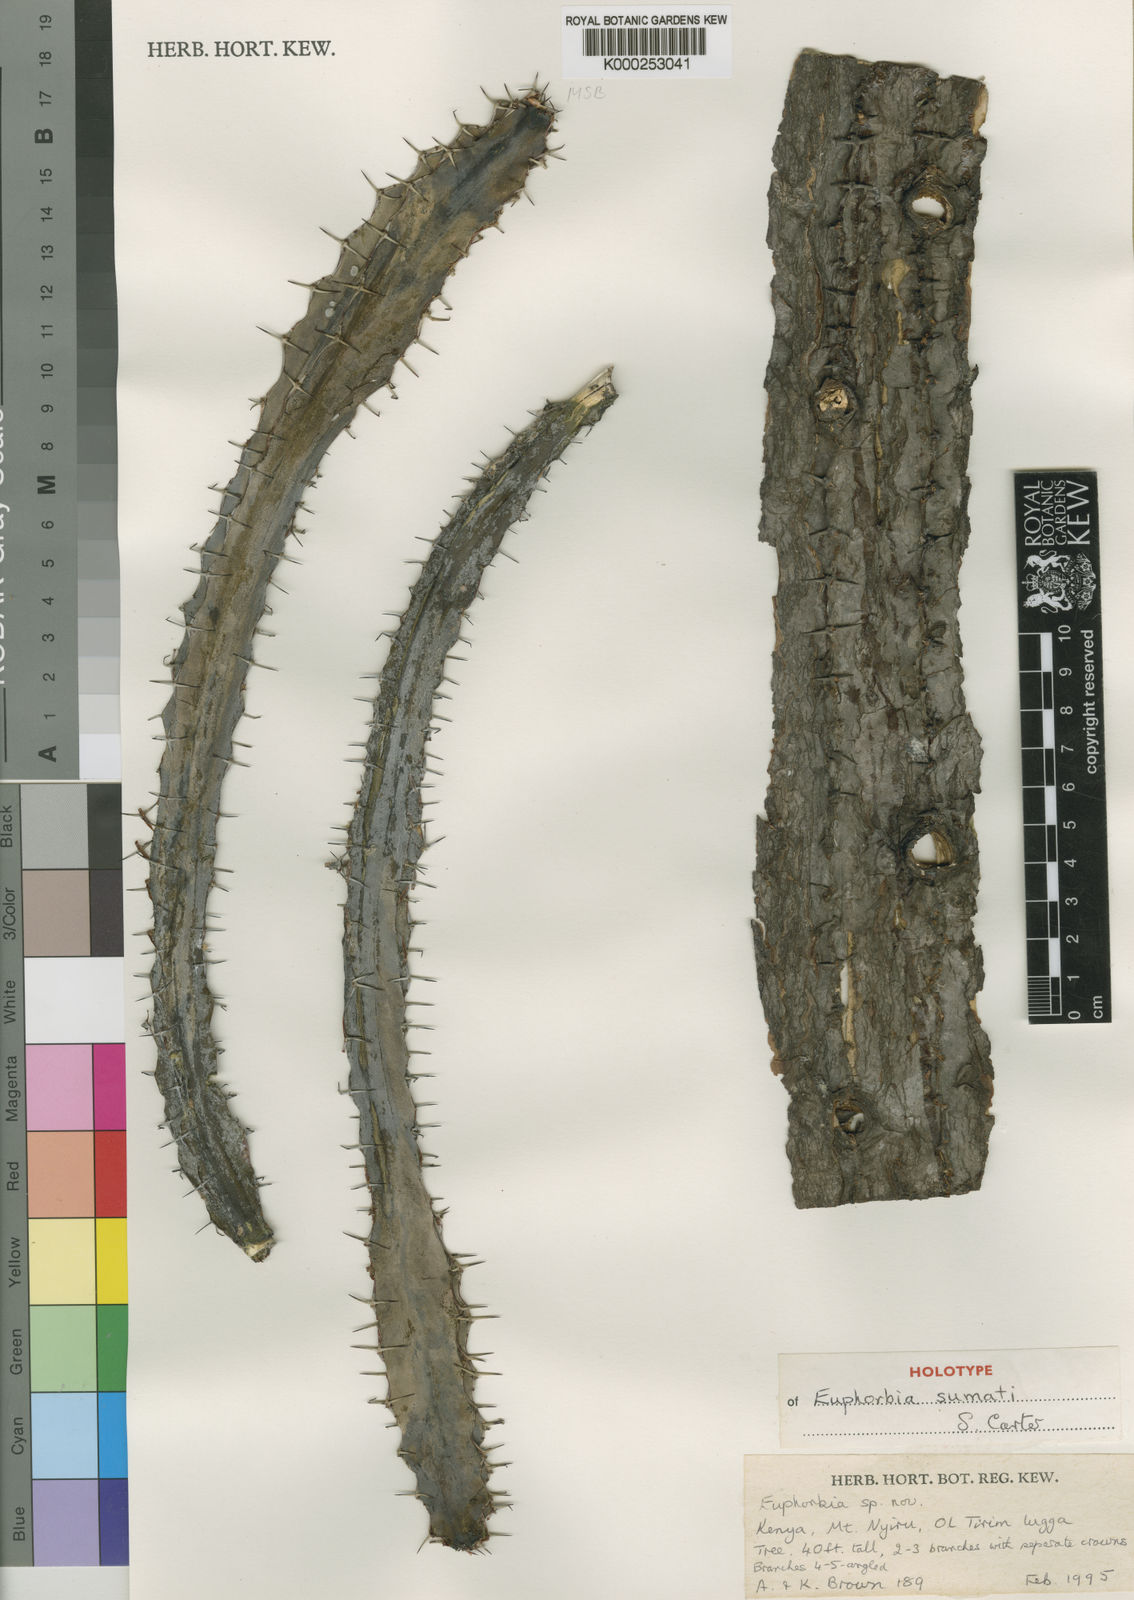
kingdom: Plantae
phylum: Tracheophyta
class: Magnoliopsida
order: Malpighiales
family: Euphorbiaceae
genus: Euphorbia
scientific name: Euphorbia sumati
